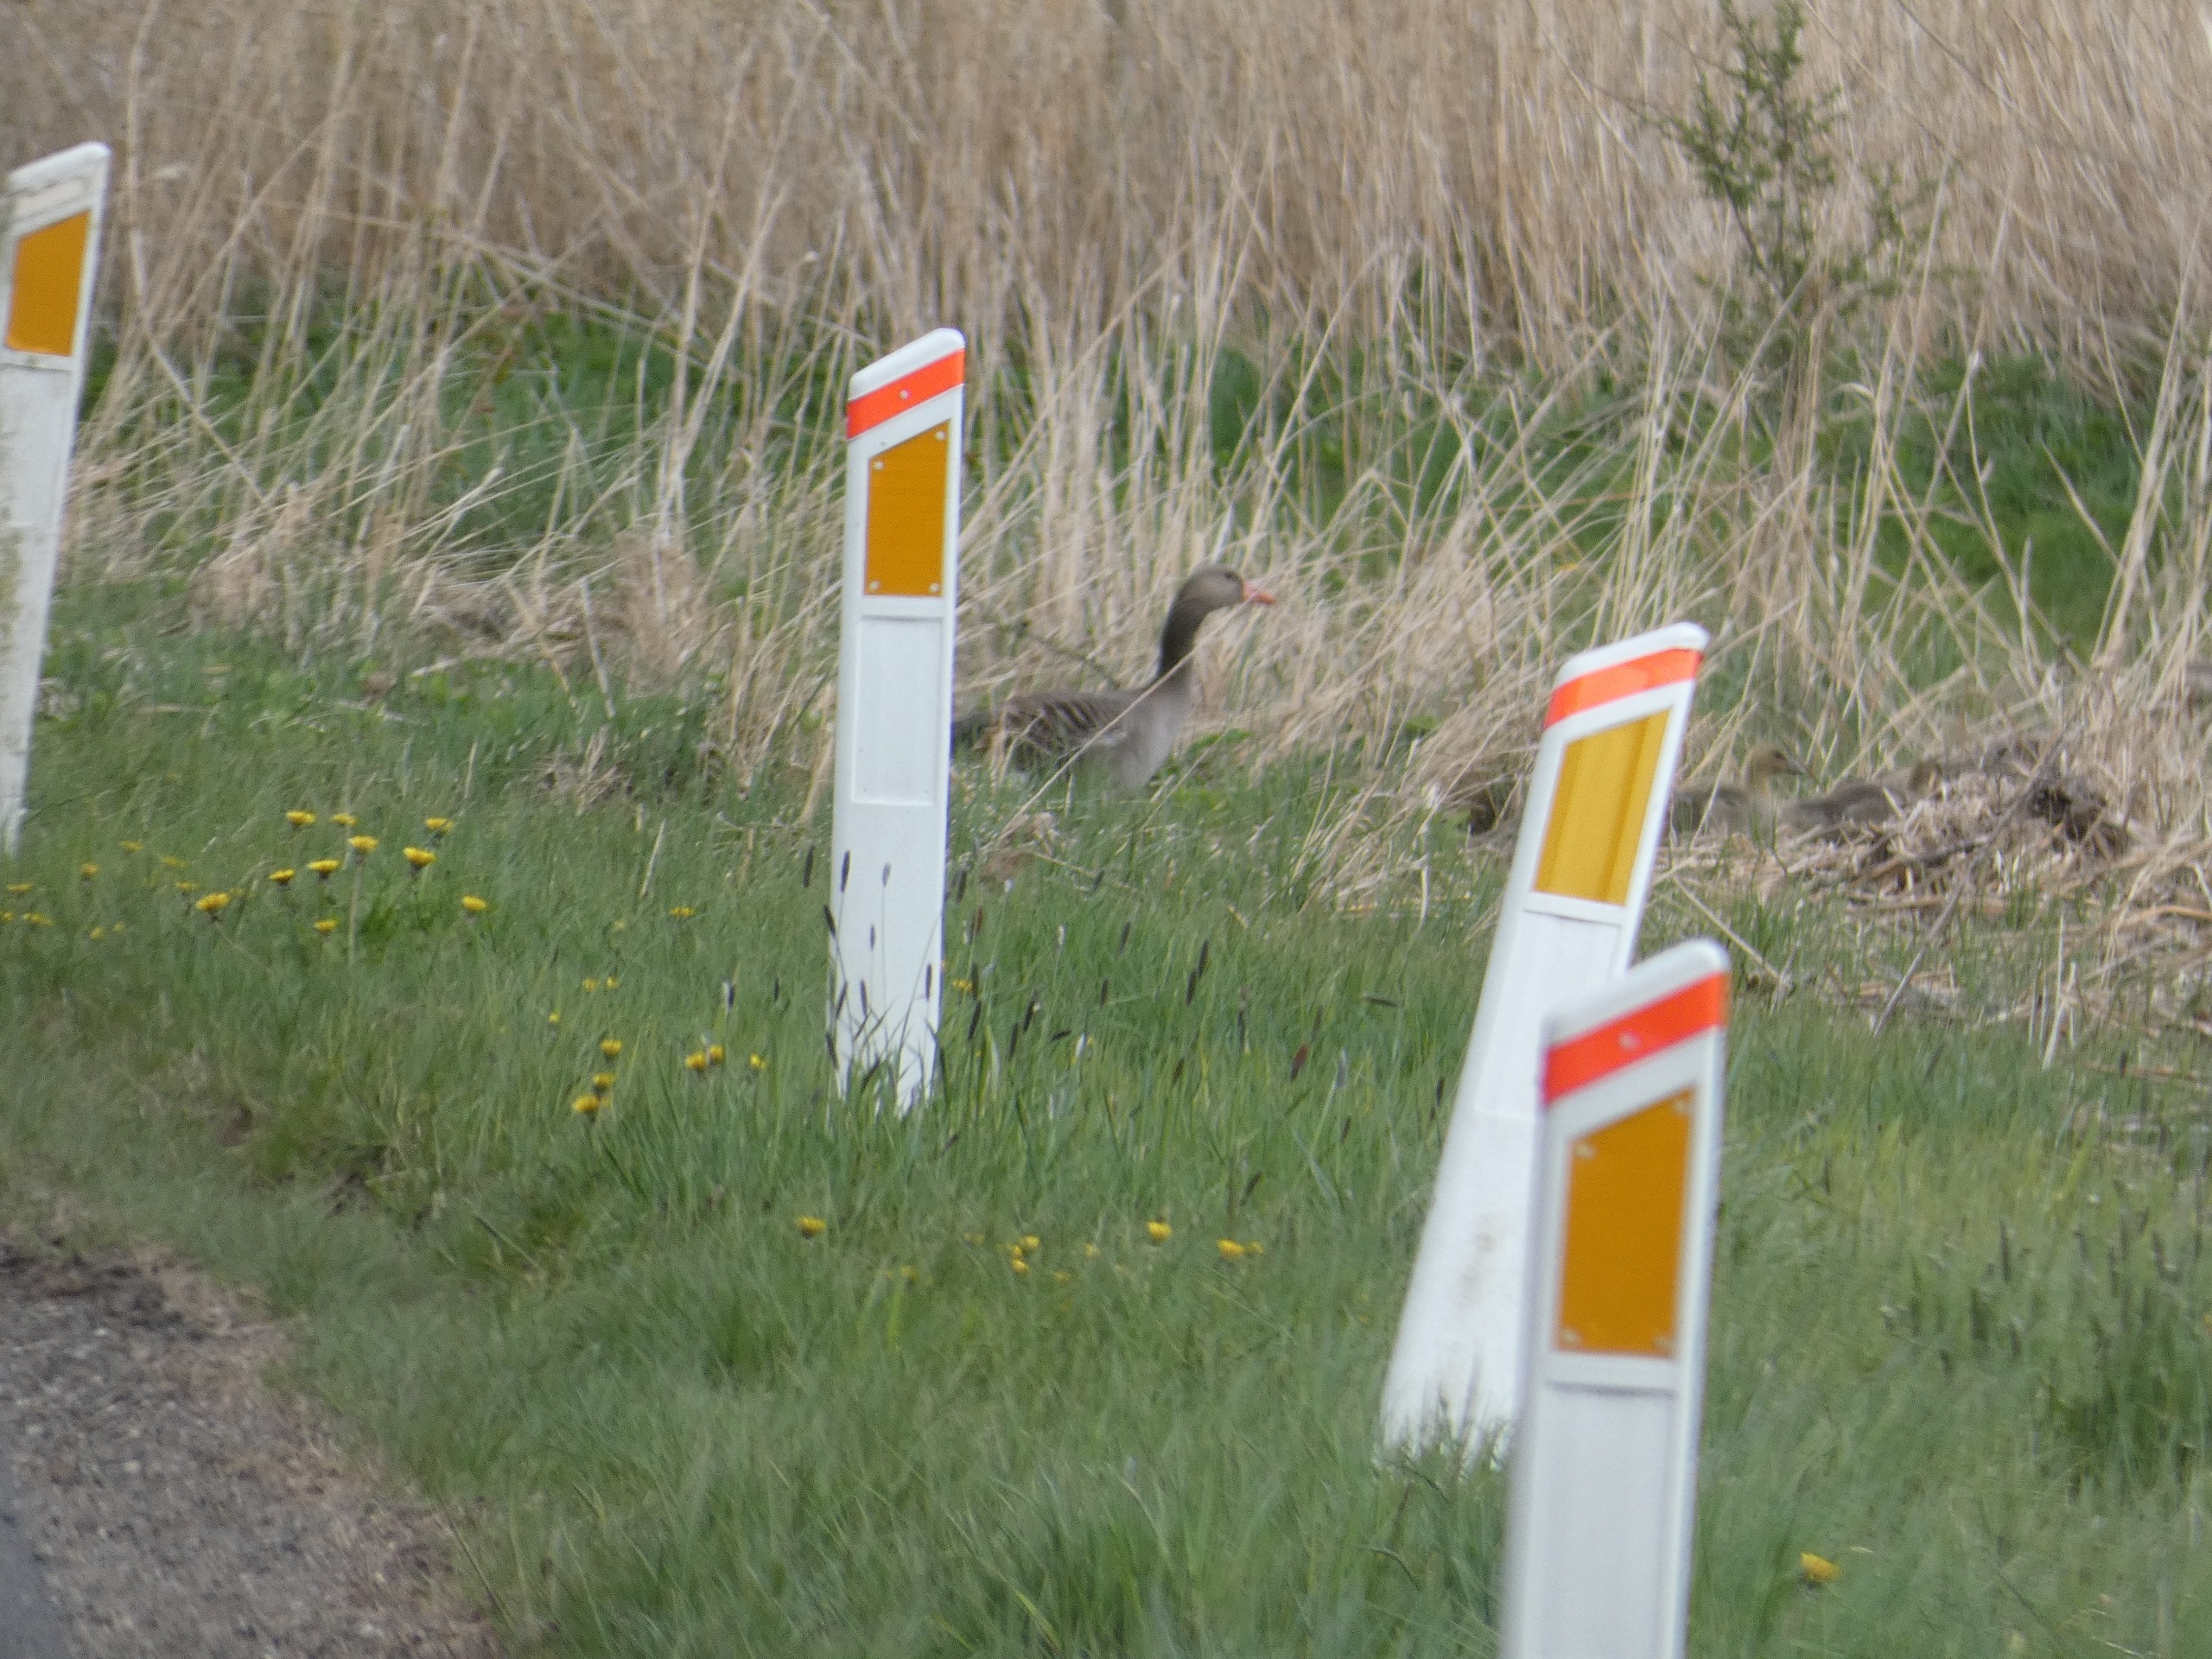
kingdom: Animalia
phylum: Chordata
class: Aves
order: Anseriformes
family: Anatidae
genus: Anser
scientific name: Anser anser
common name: Grågås
